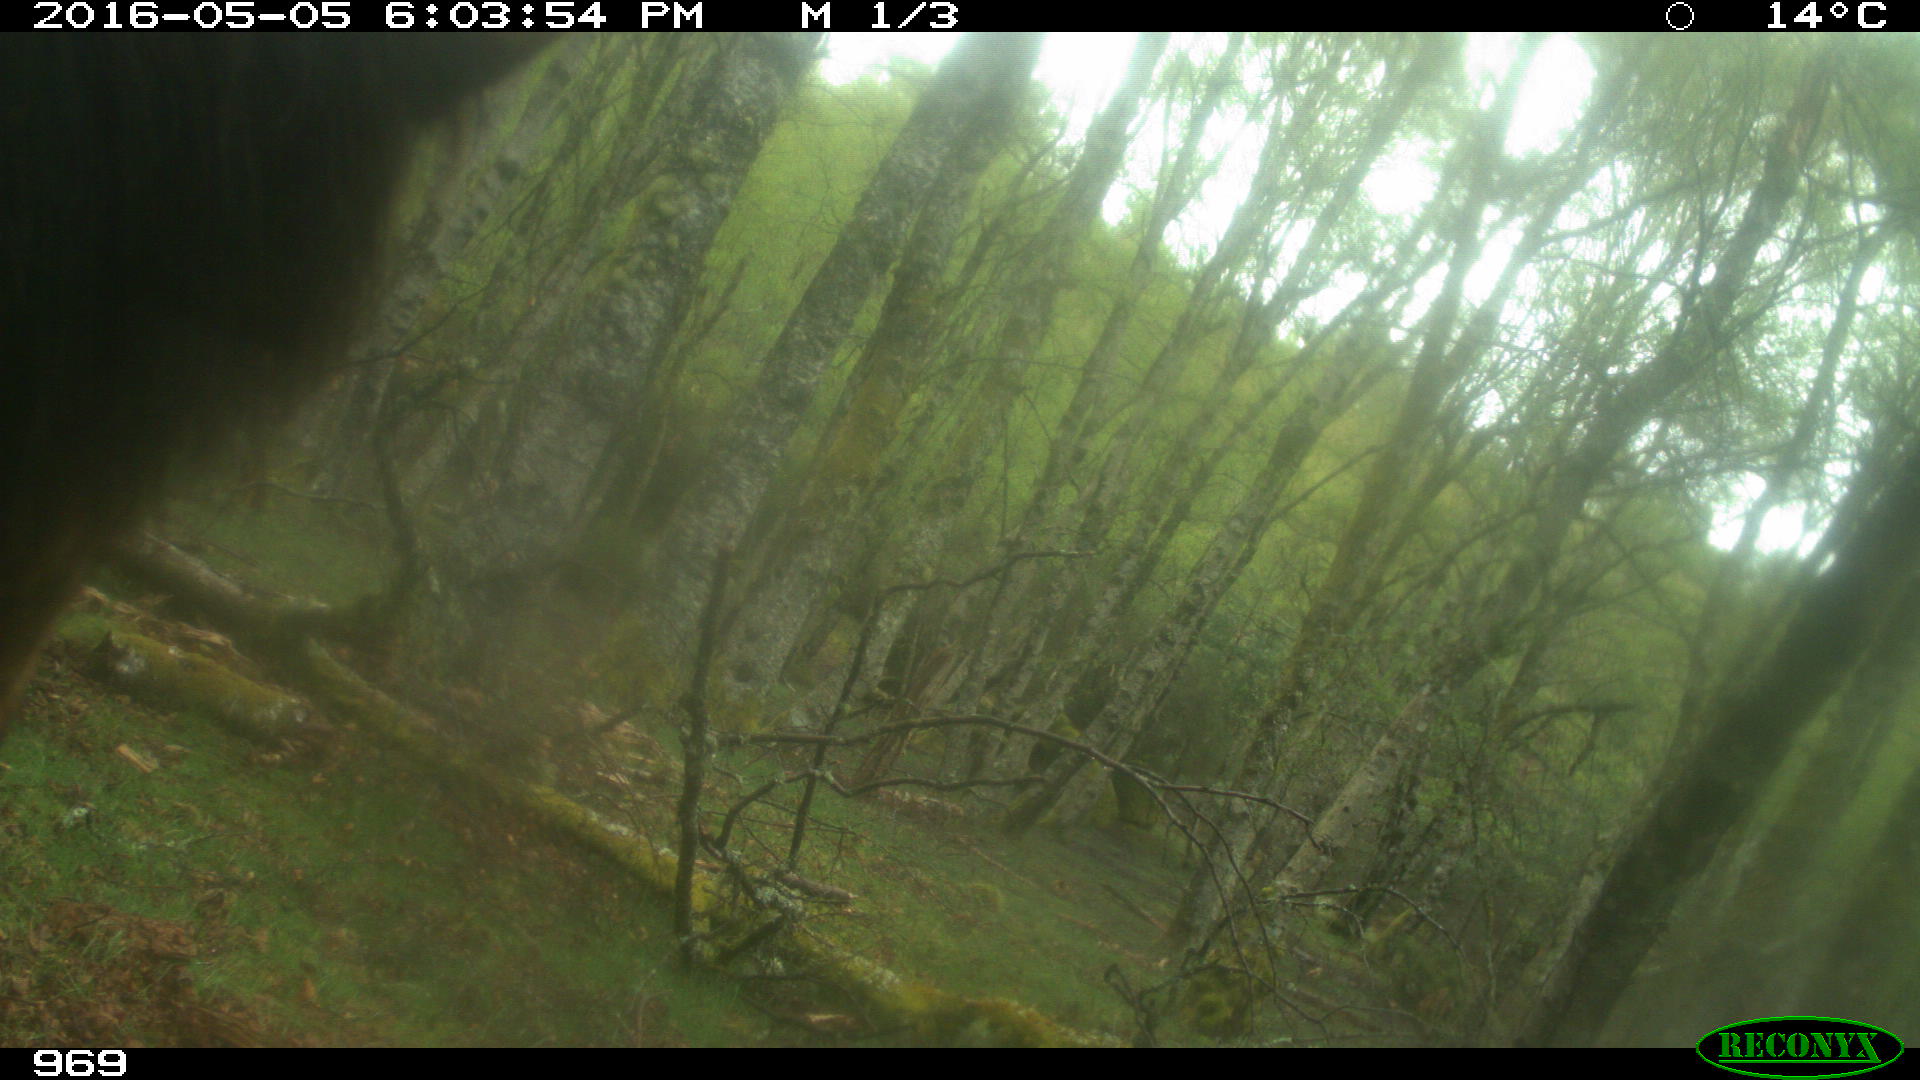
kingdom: Animalia
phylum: Chordata
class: Mammalia
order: Perissodactyla
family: Equidae
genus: Equus
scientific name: Equus caballus
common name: Horse
